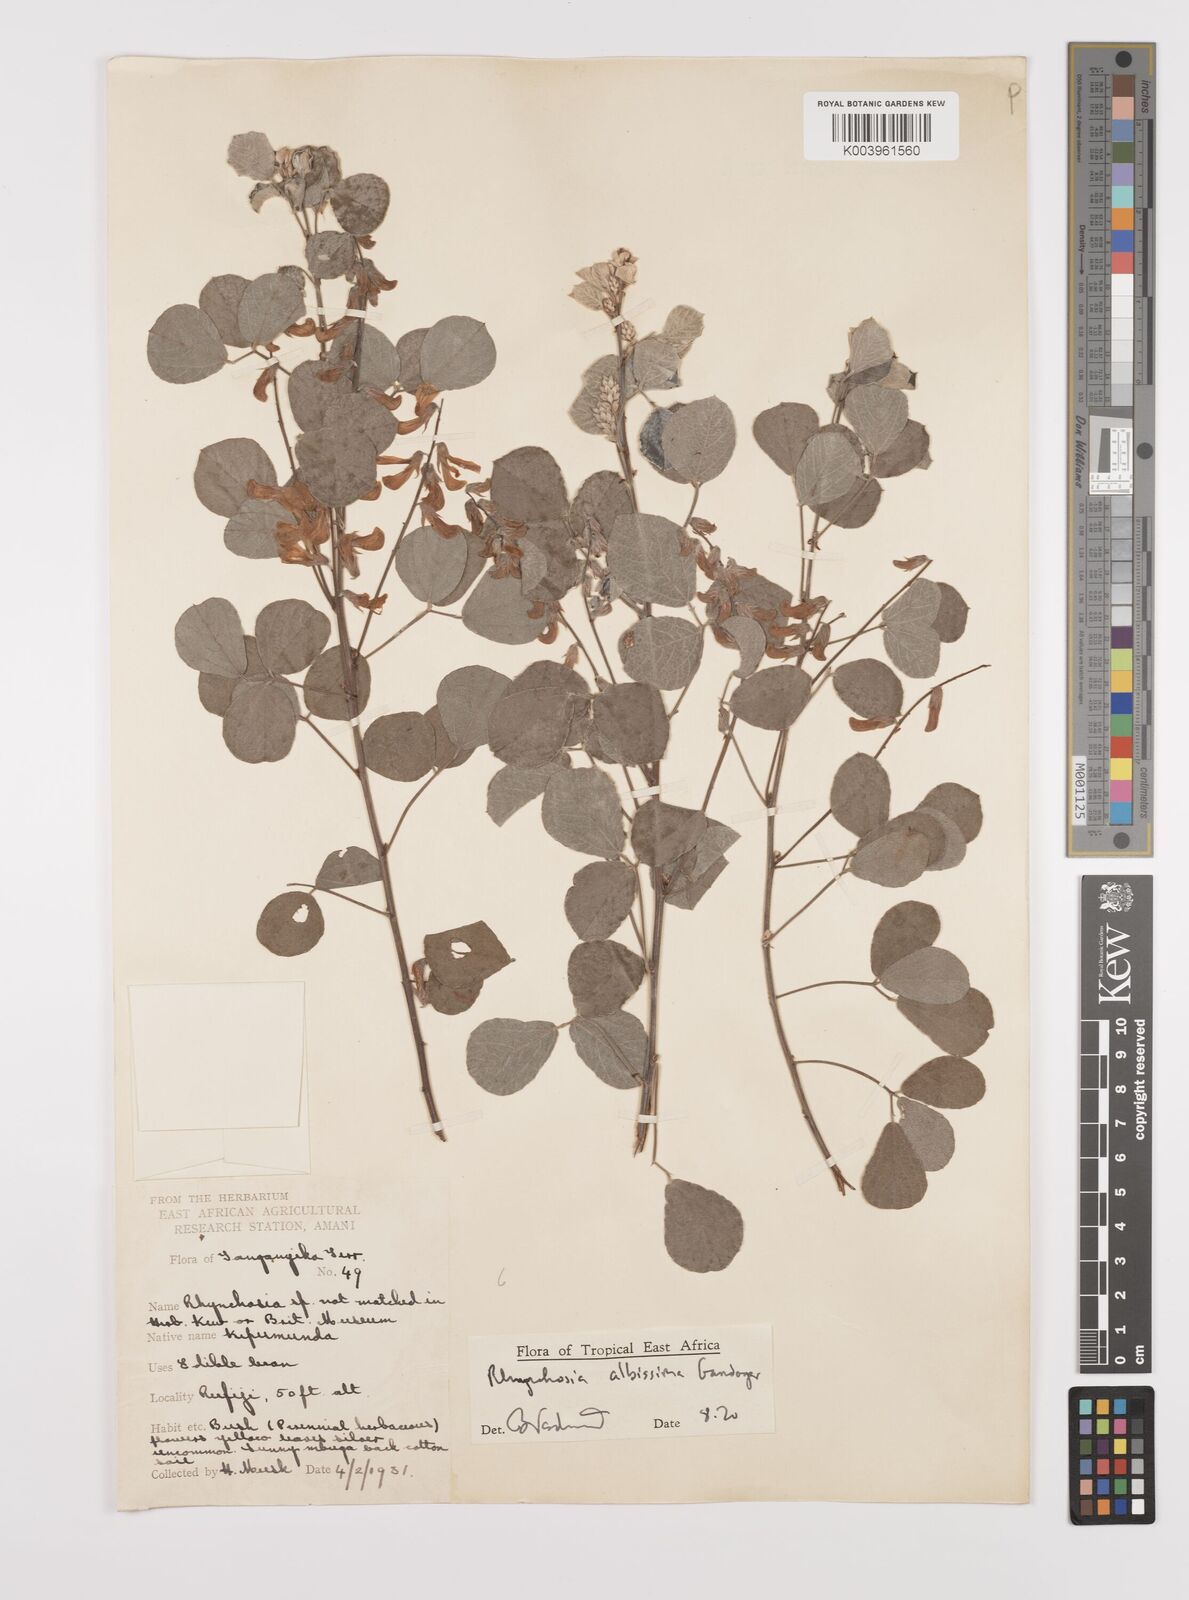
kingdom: Plantae
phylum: Tracheophyta
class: Magnoliopsida
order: Fabales
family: Fabaceae
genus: Rhynchosia
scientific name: Rhynchosia albissima
